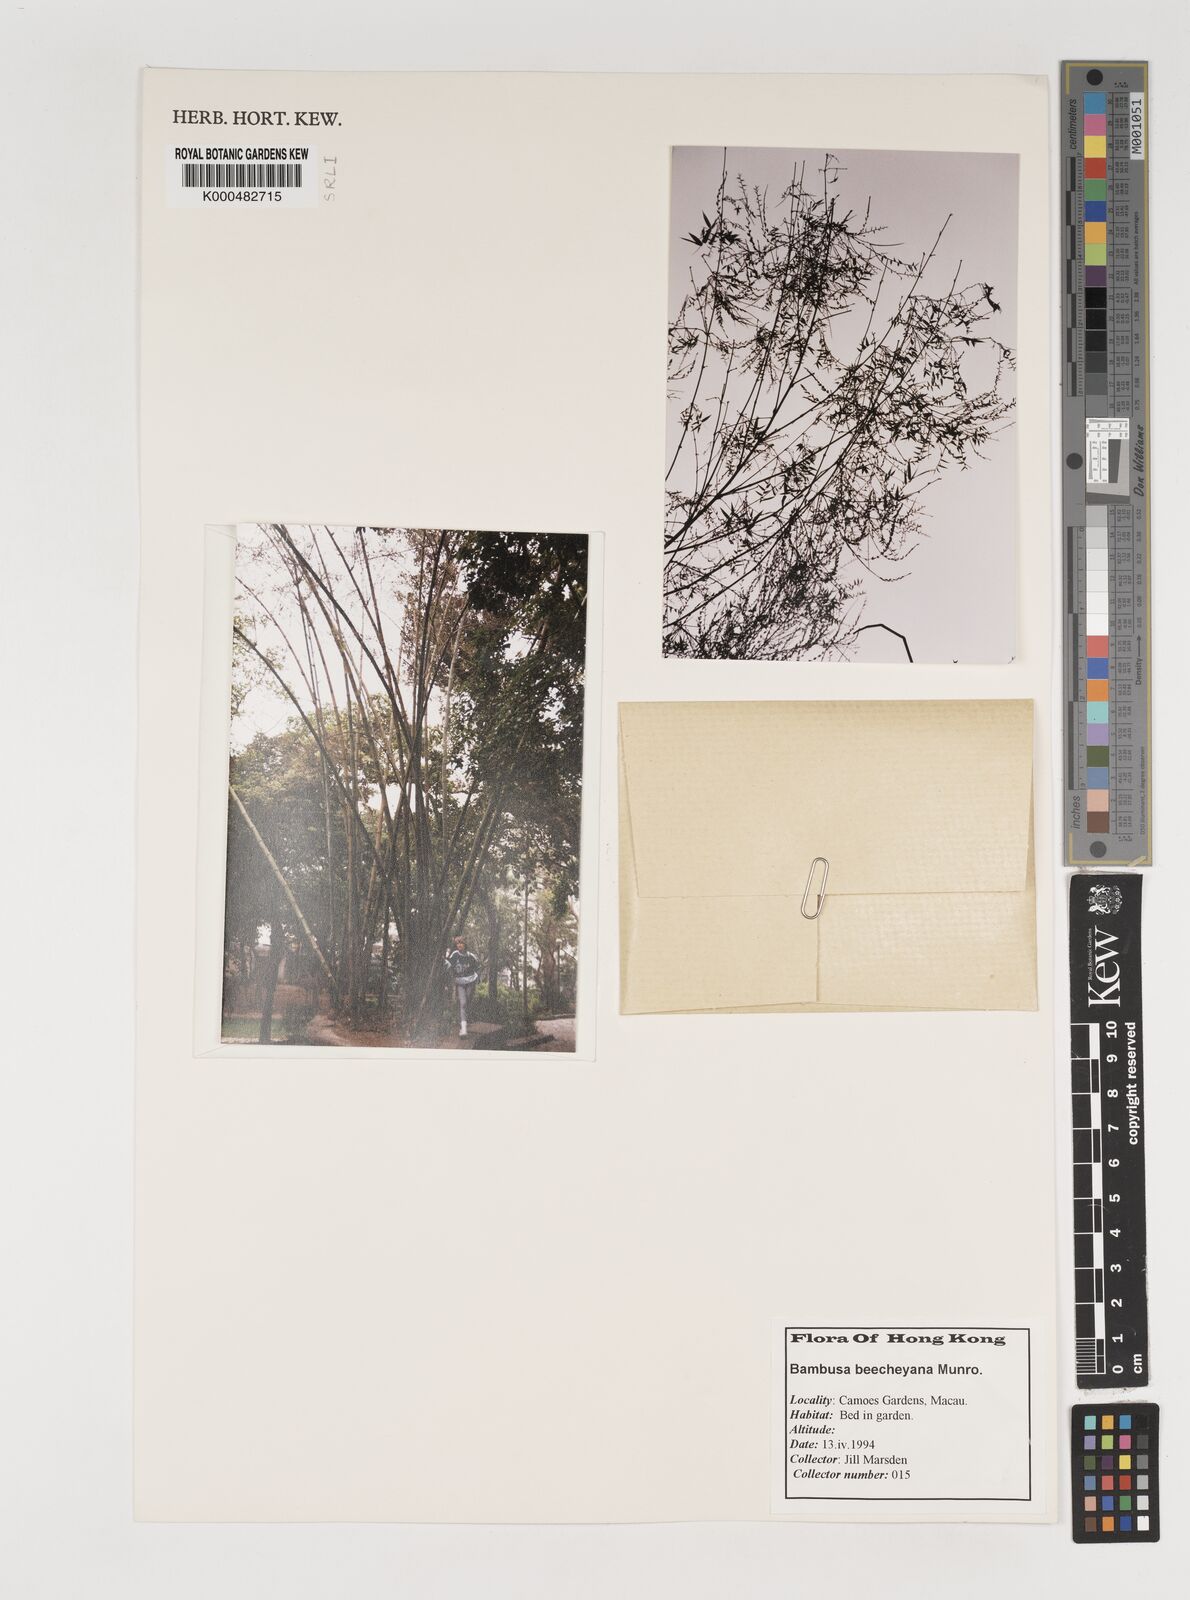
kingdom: Plantae
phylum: Tracheophyta
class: Liliopsida
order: Poales
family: Poaceae
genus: Bambusa
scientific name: Bambusa beecheyana
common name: Beechey's bamboo
